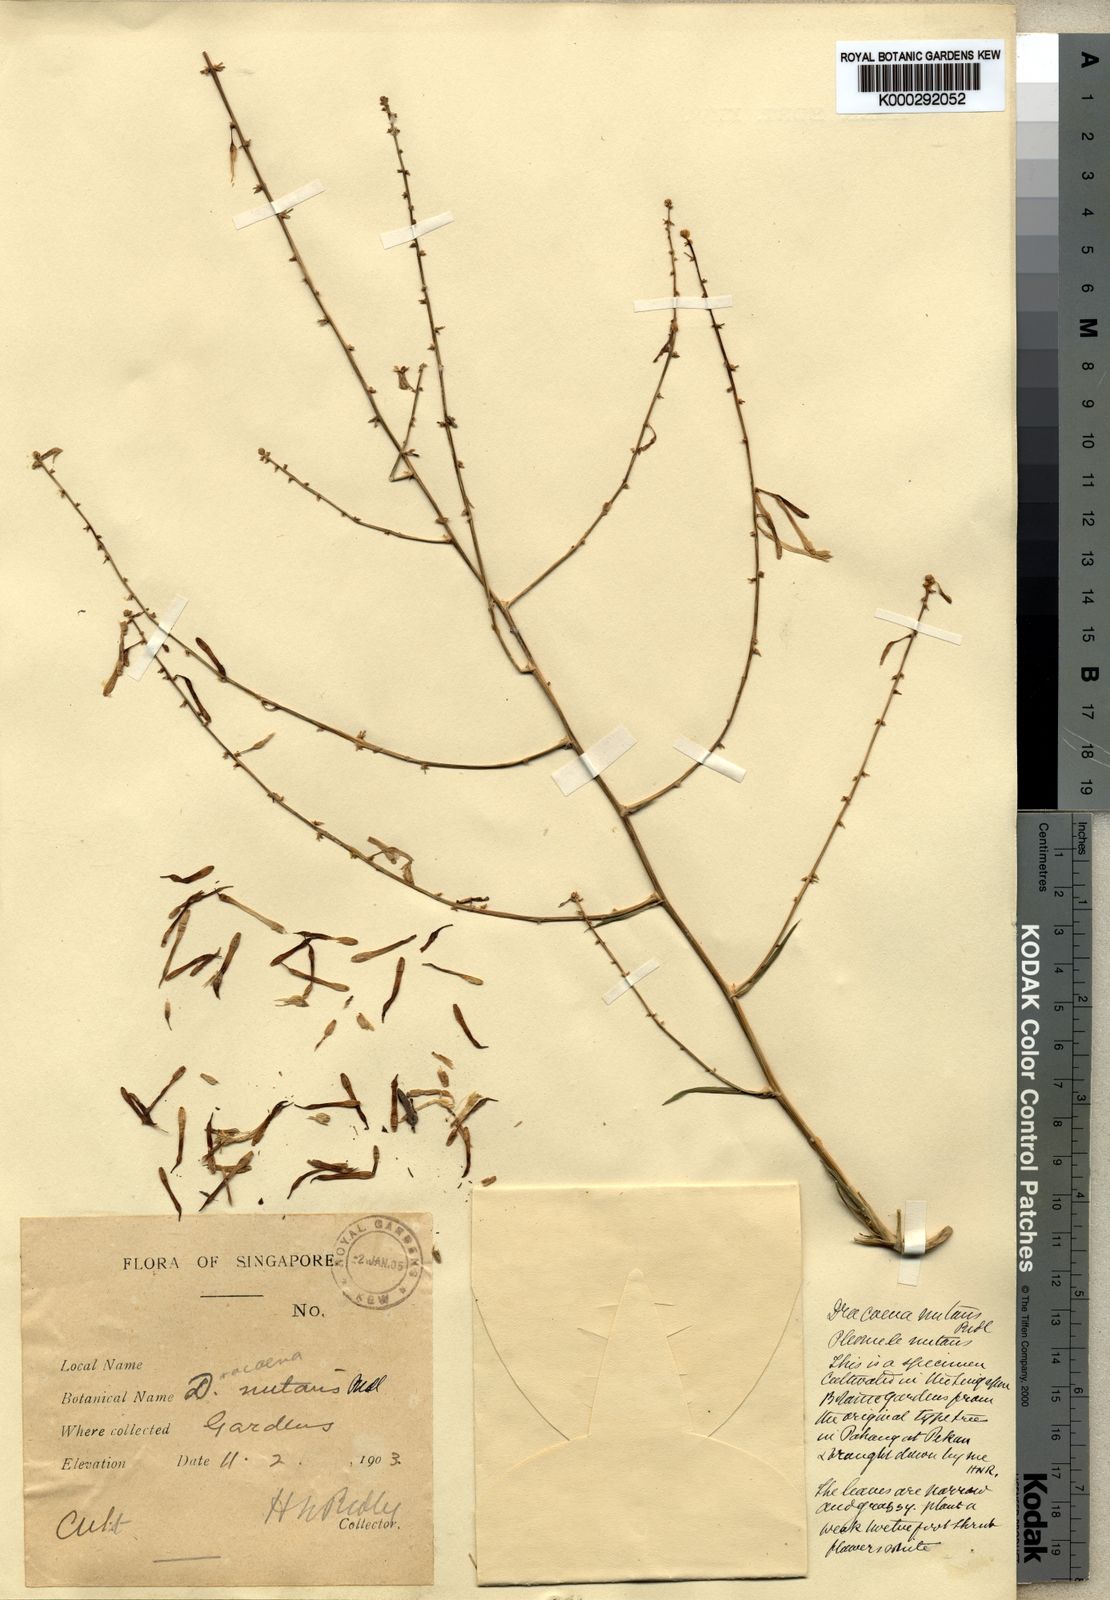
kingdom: Plantae
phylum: Tracheophyta
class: Liliopsida
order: Asparagales
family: Asparagaceae
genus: Dracaena
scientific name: Dracaena nutans
